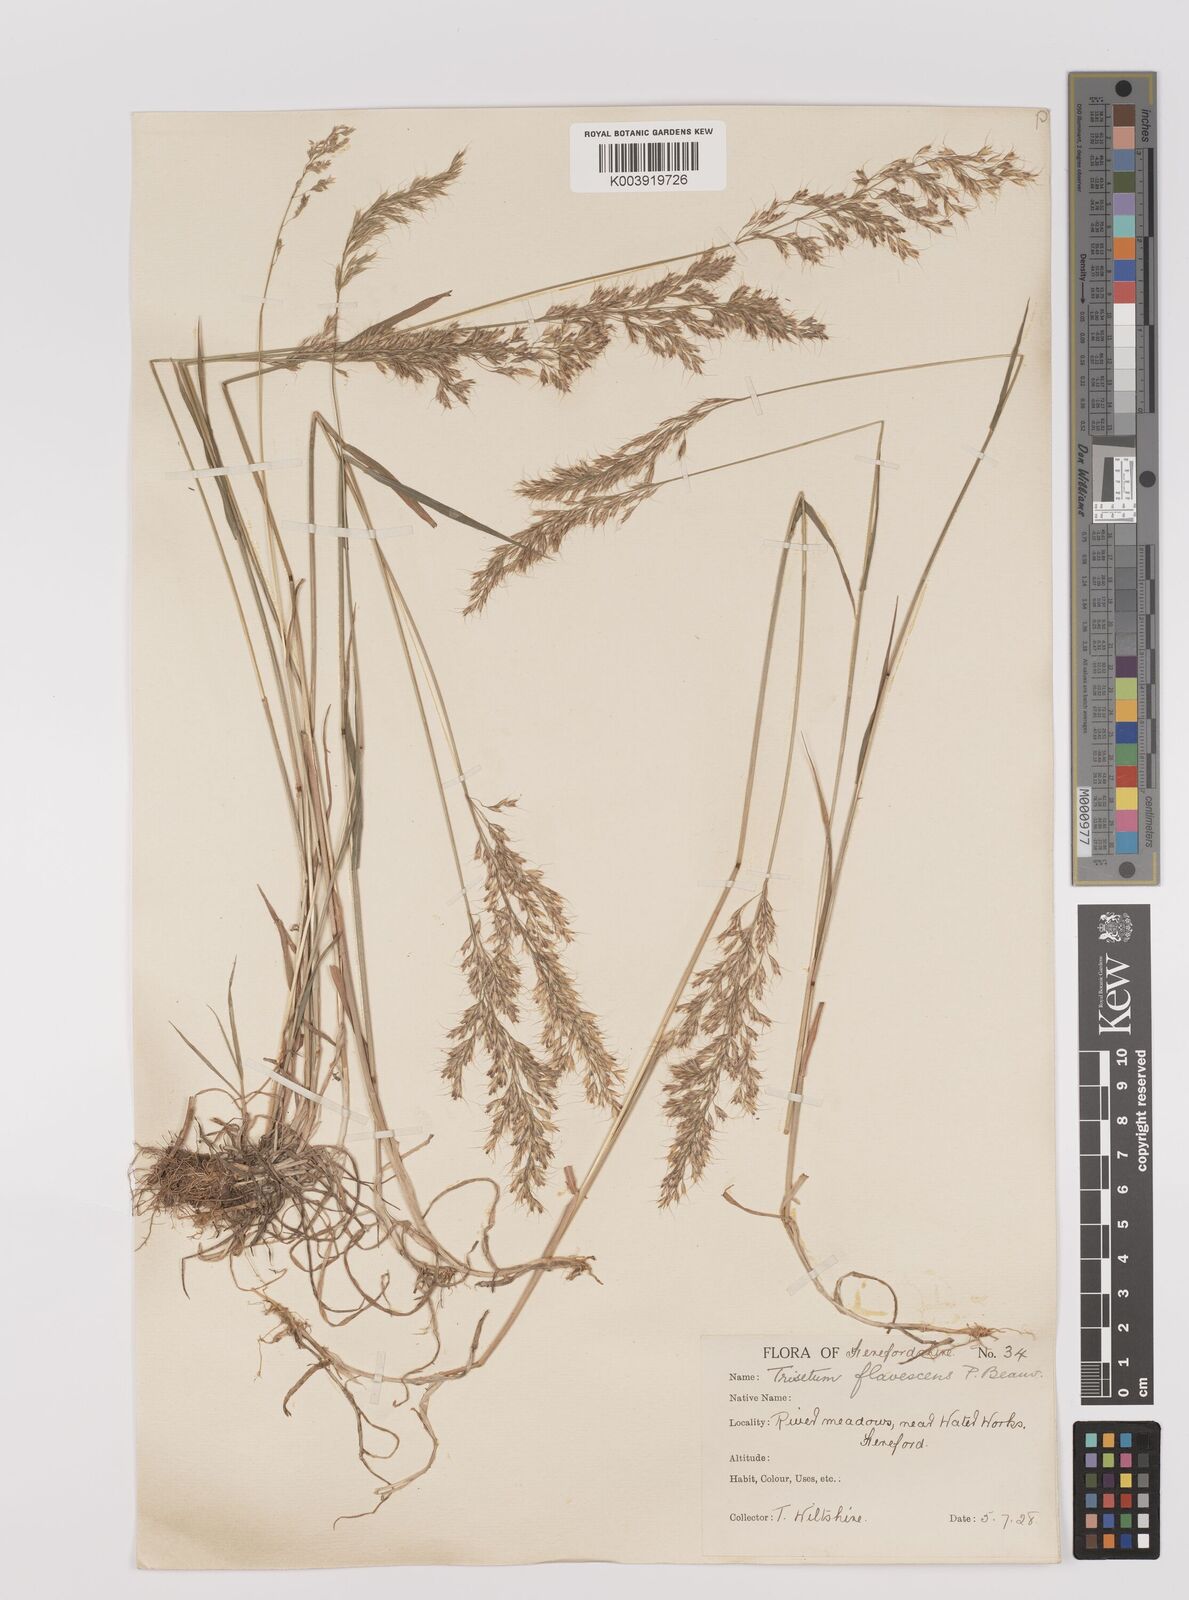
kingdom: Plantae
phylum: Tracheophyta
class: Liliopsida
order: Poales
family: Poaceae
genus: Trisetum
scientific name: Trisetum flavescens
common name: Yellow oat-grass
